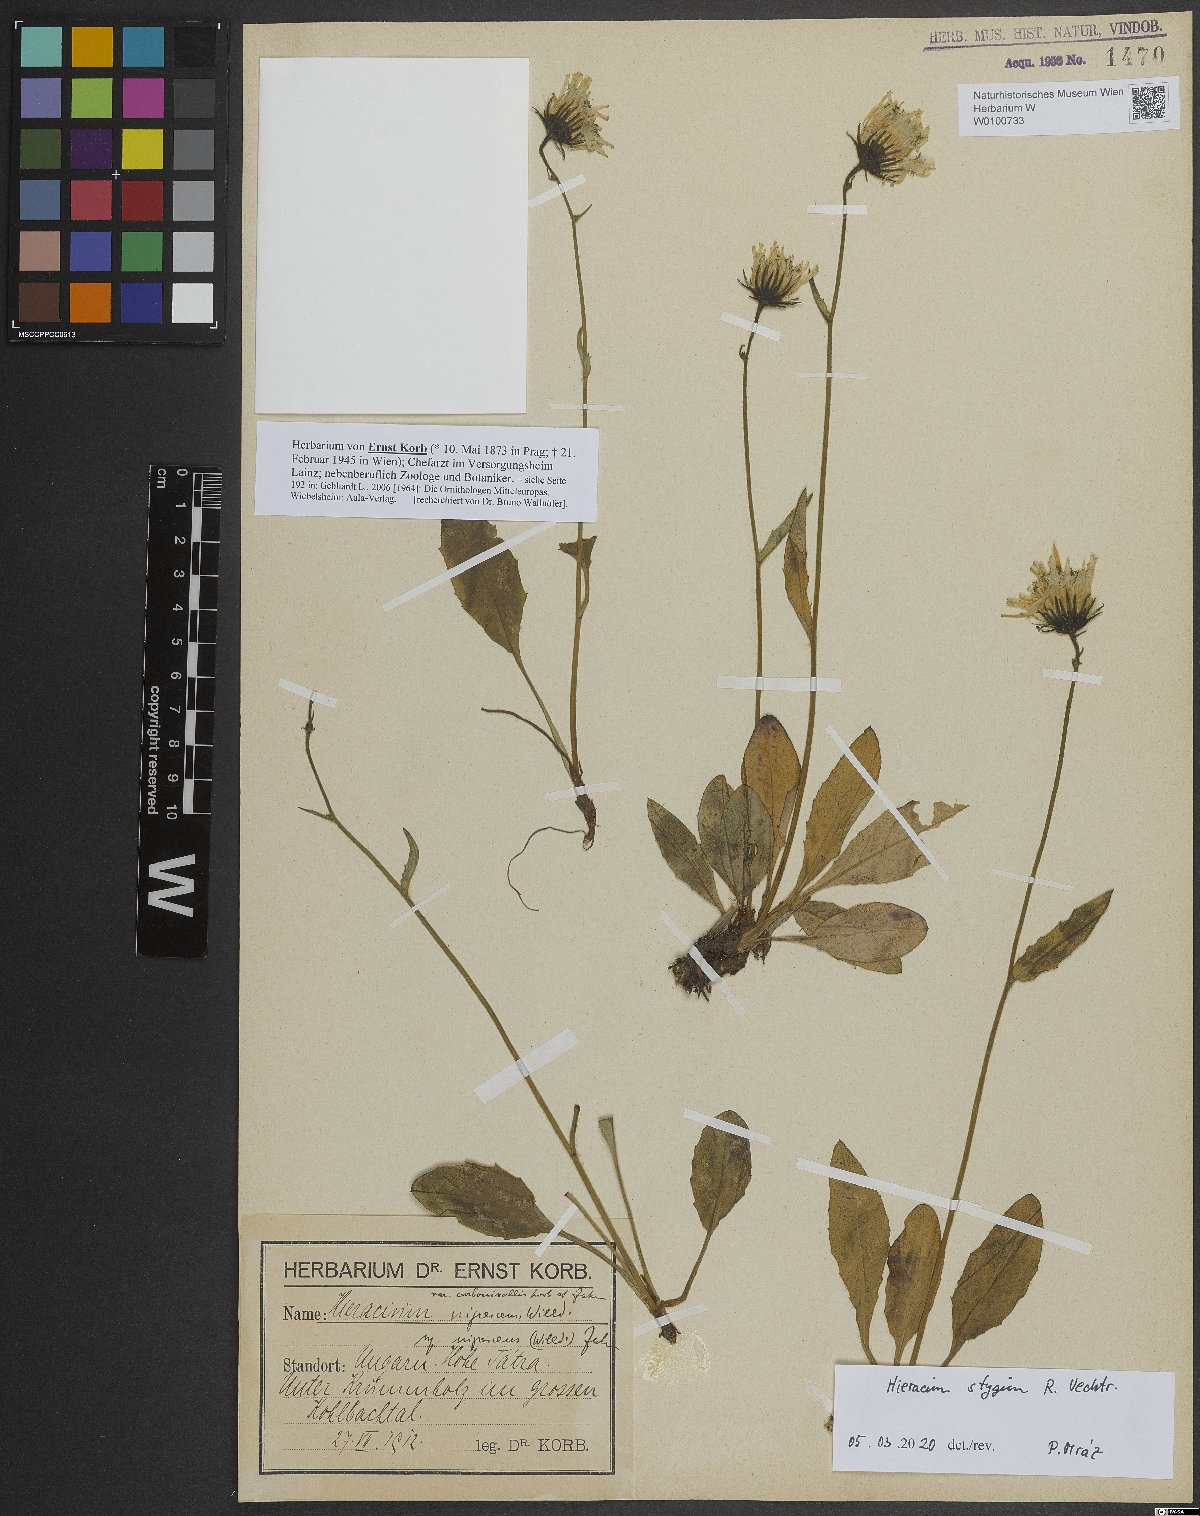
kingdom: Plantae
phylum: Tracheophyta
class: Magnoliopsida
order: Asterales
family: Asteraceae
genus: Hieracium
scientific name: Hieracium chlorocephalum
